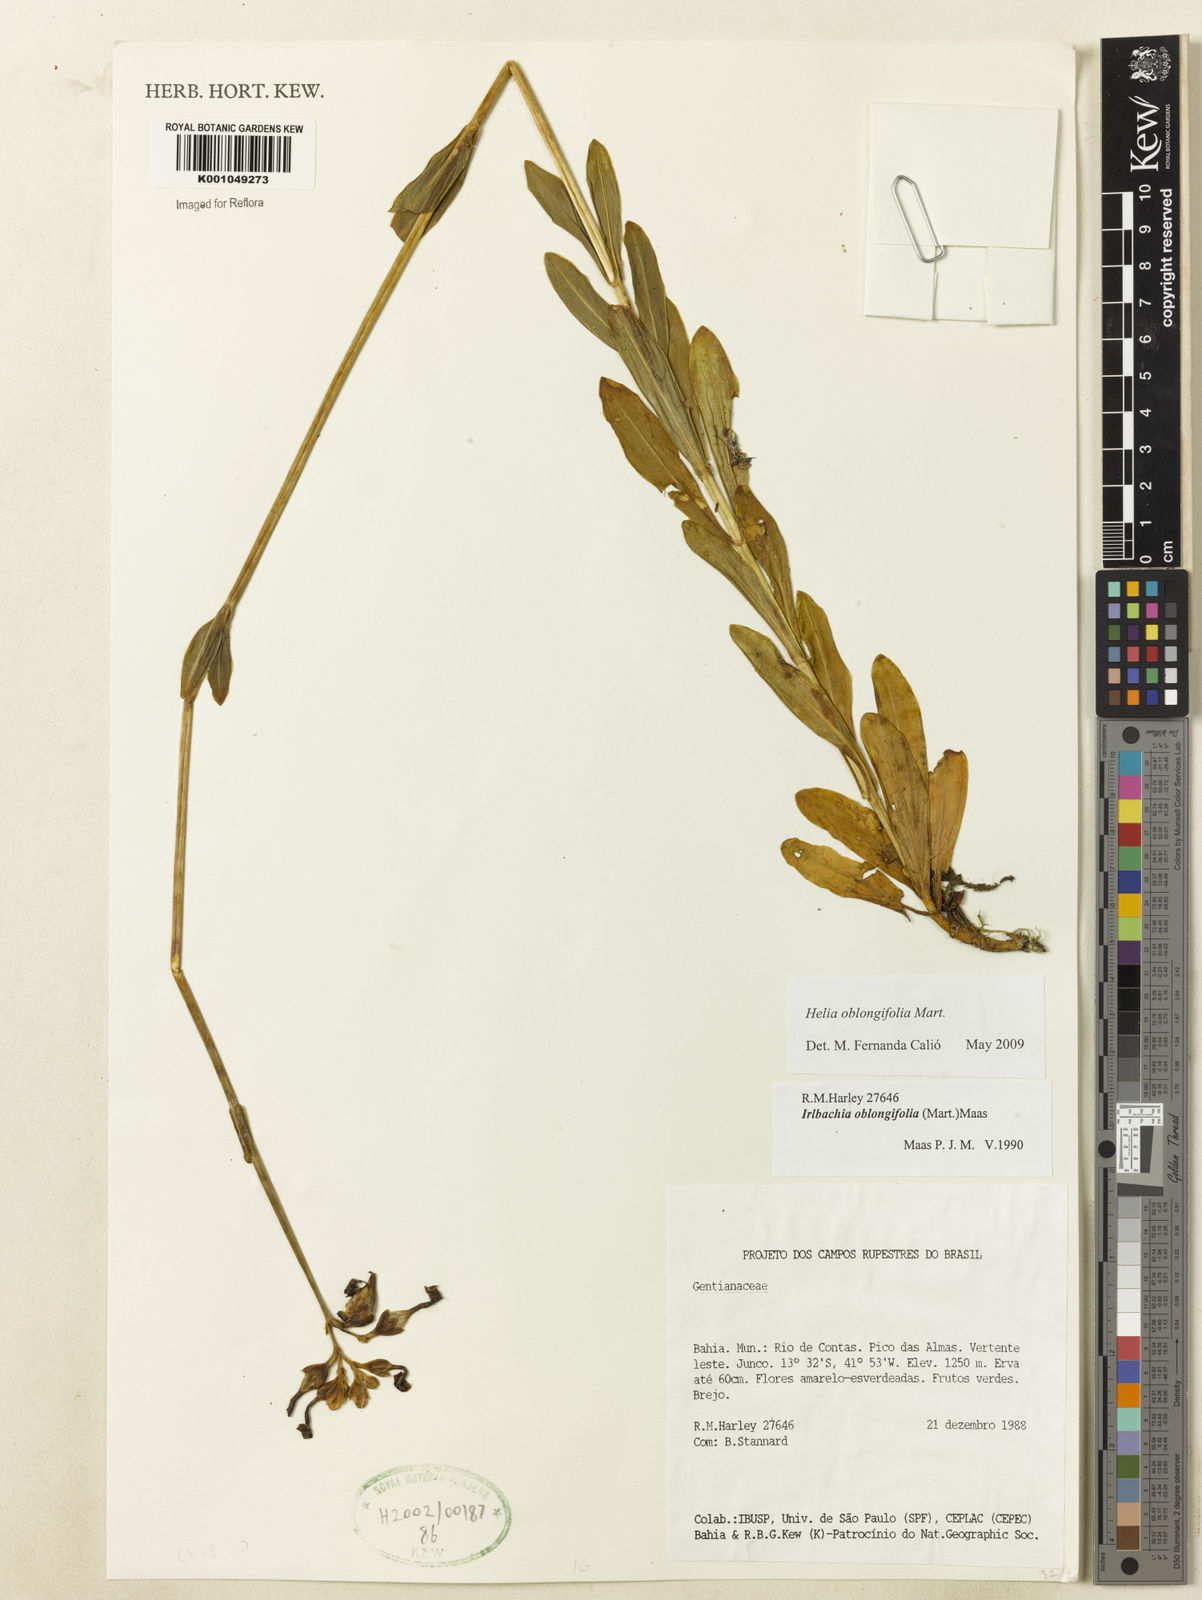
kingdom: Plantae
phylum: Tracheophyta
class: Magnoliopsida
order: Gentianales
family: Gentianaceae
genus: Irlbachia
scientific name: Irlbachia oblongifolia
